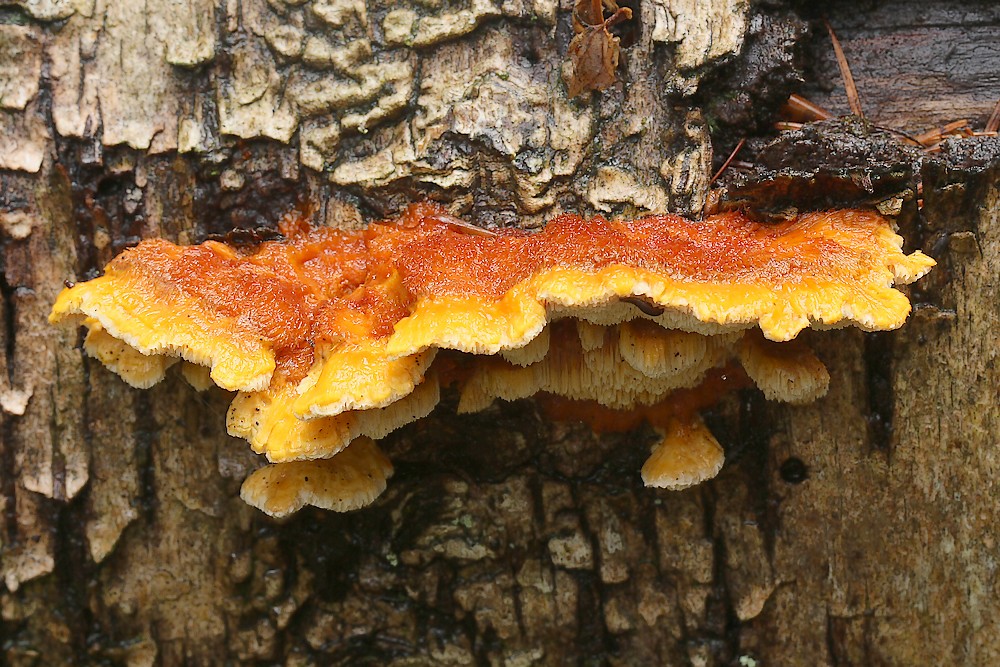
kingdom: Fungi
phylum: Basidiomycota
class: Agaricomycetes
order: Polyporales
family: Pycnoporellaceae
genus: Pycnoporellus
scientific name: Pycnoporellus fulgens
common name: flammeporesvamp
